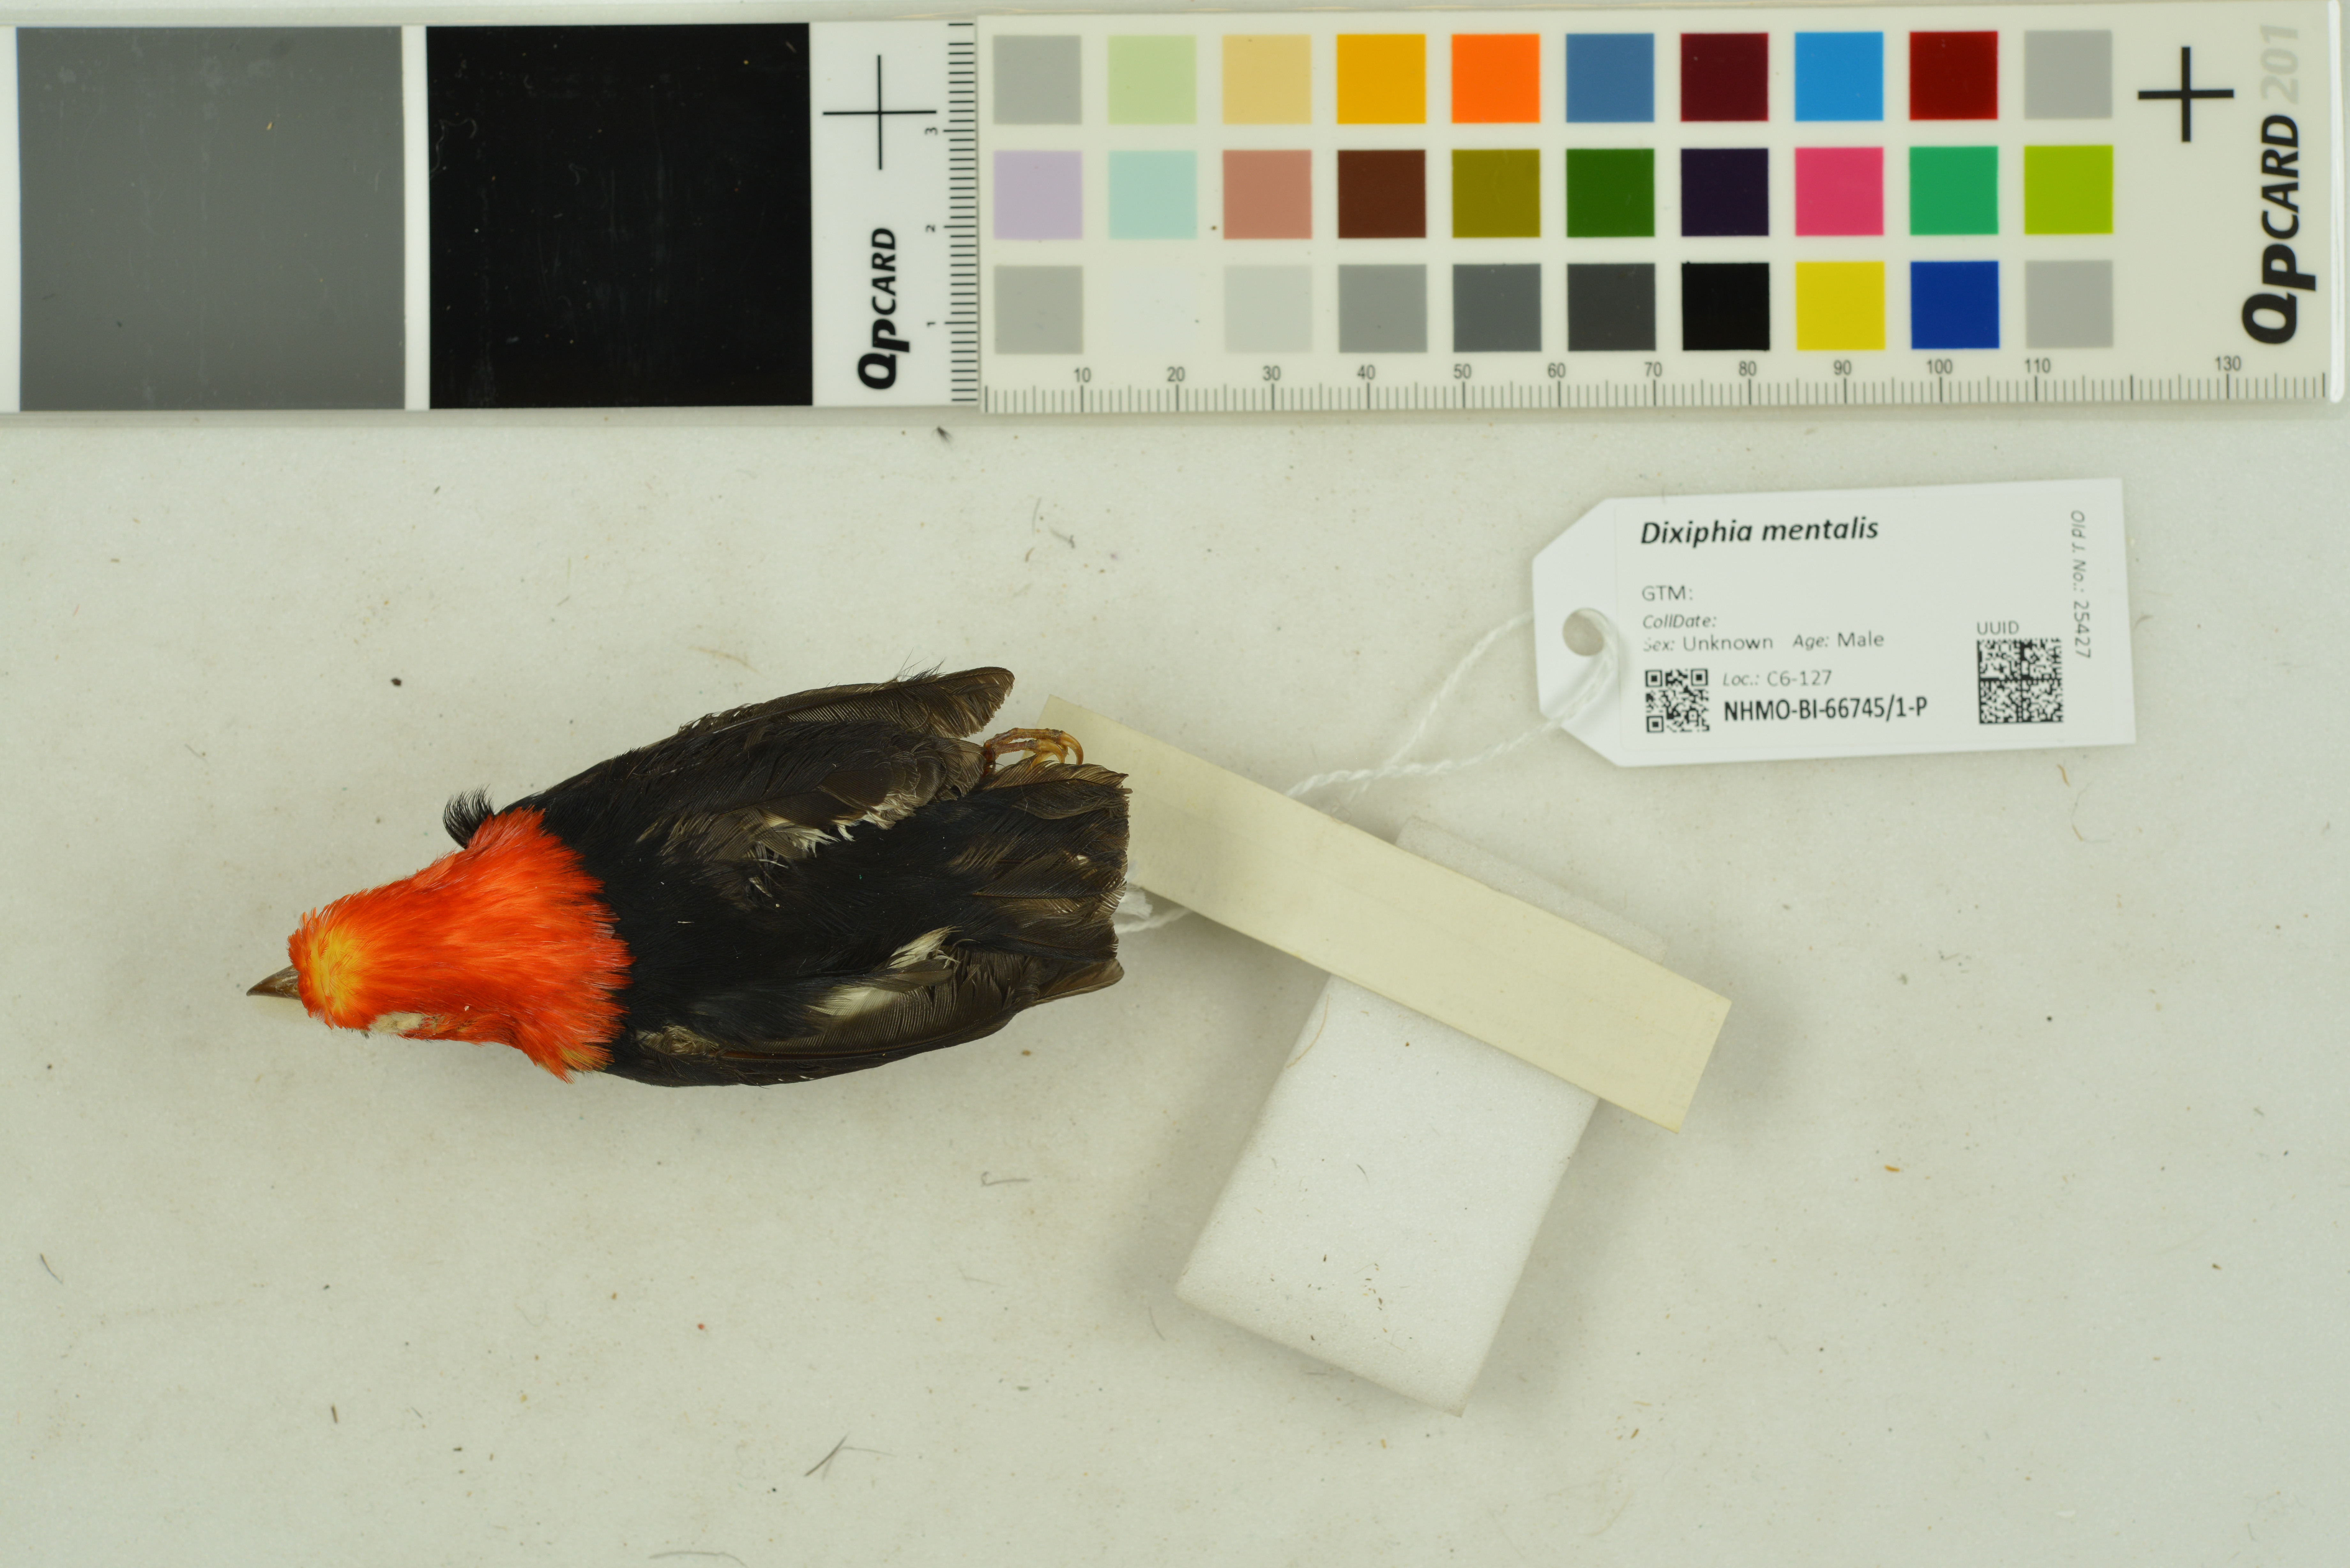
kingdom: Animalia
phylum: Chordata
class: Aves
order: Passeriformes
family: Pipridae
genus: Pipra
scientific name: Pipra mentalis
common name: Red-capped manakin
